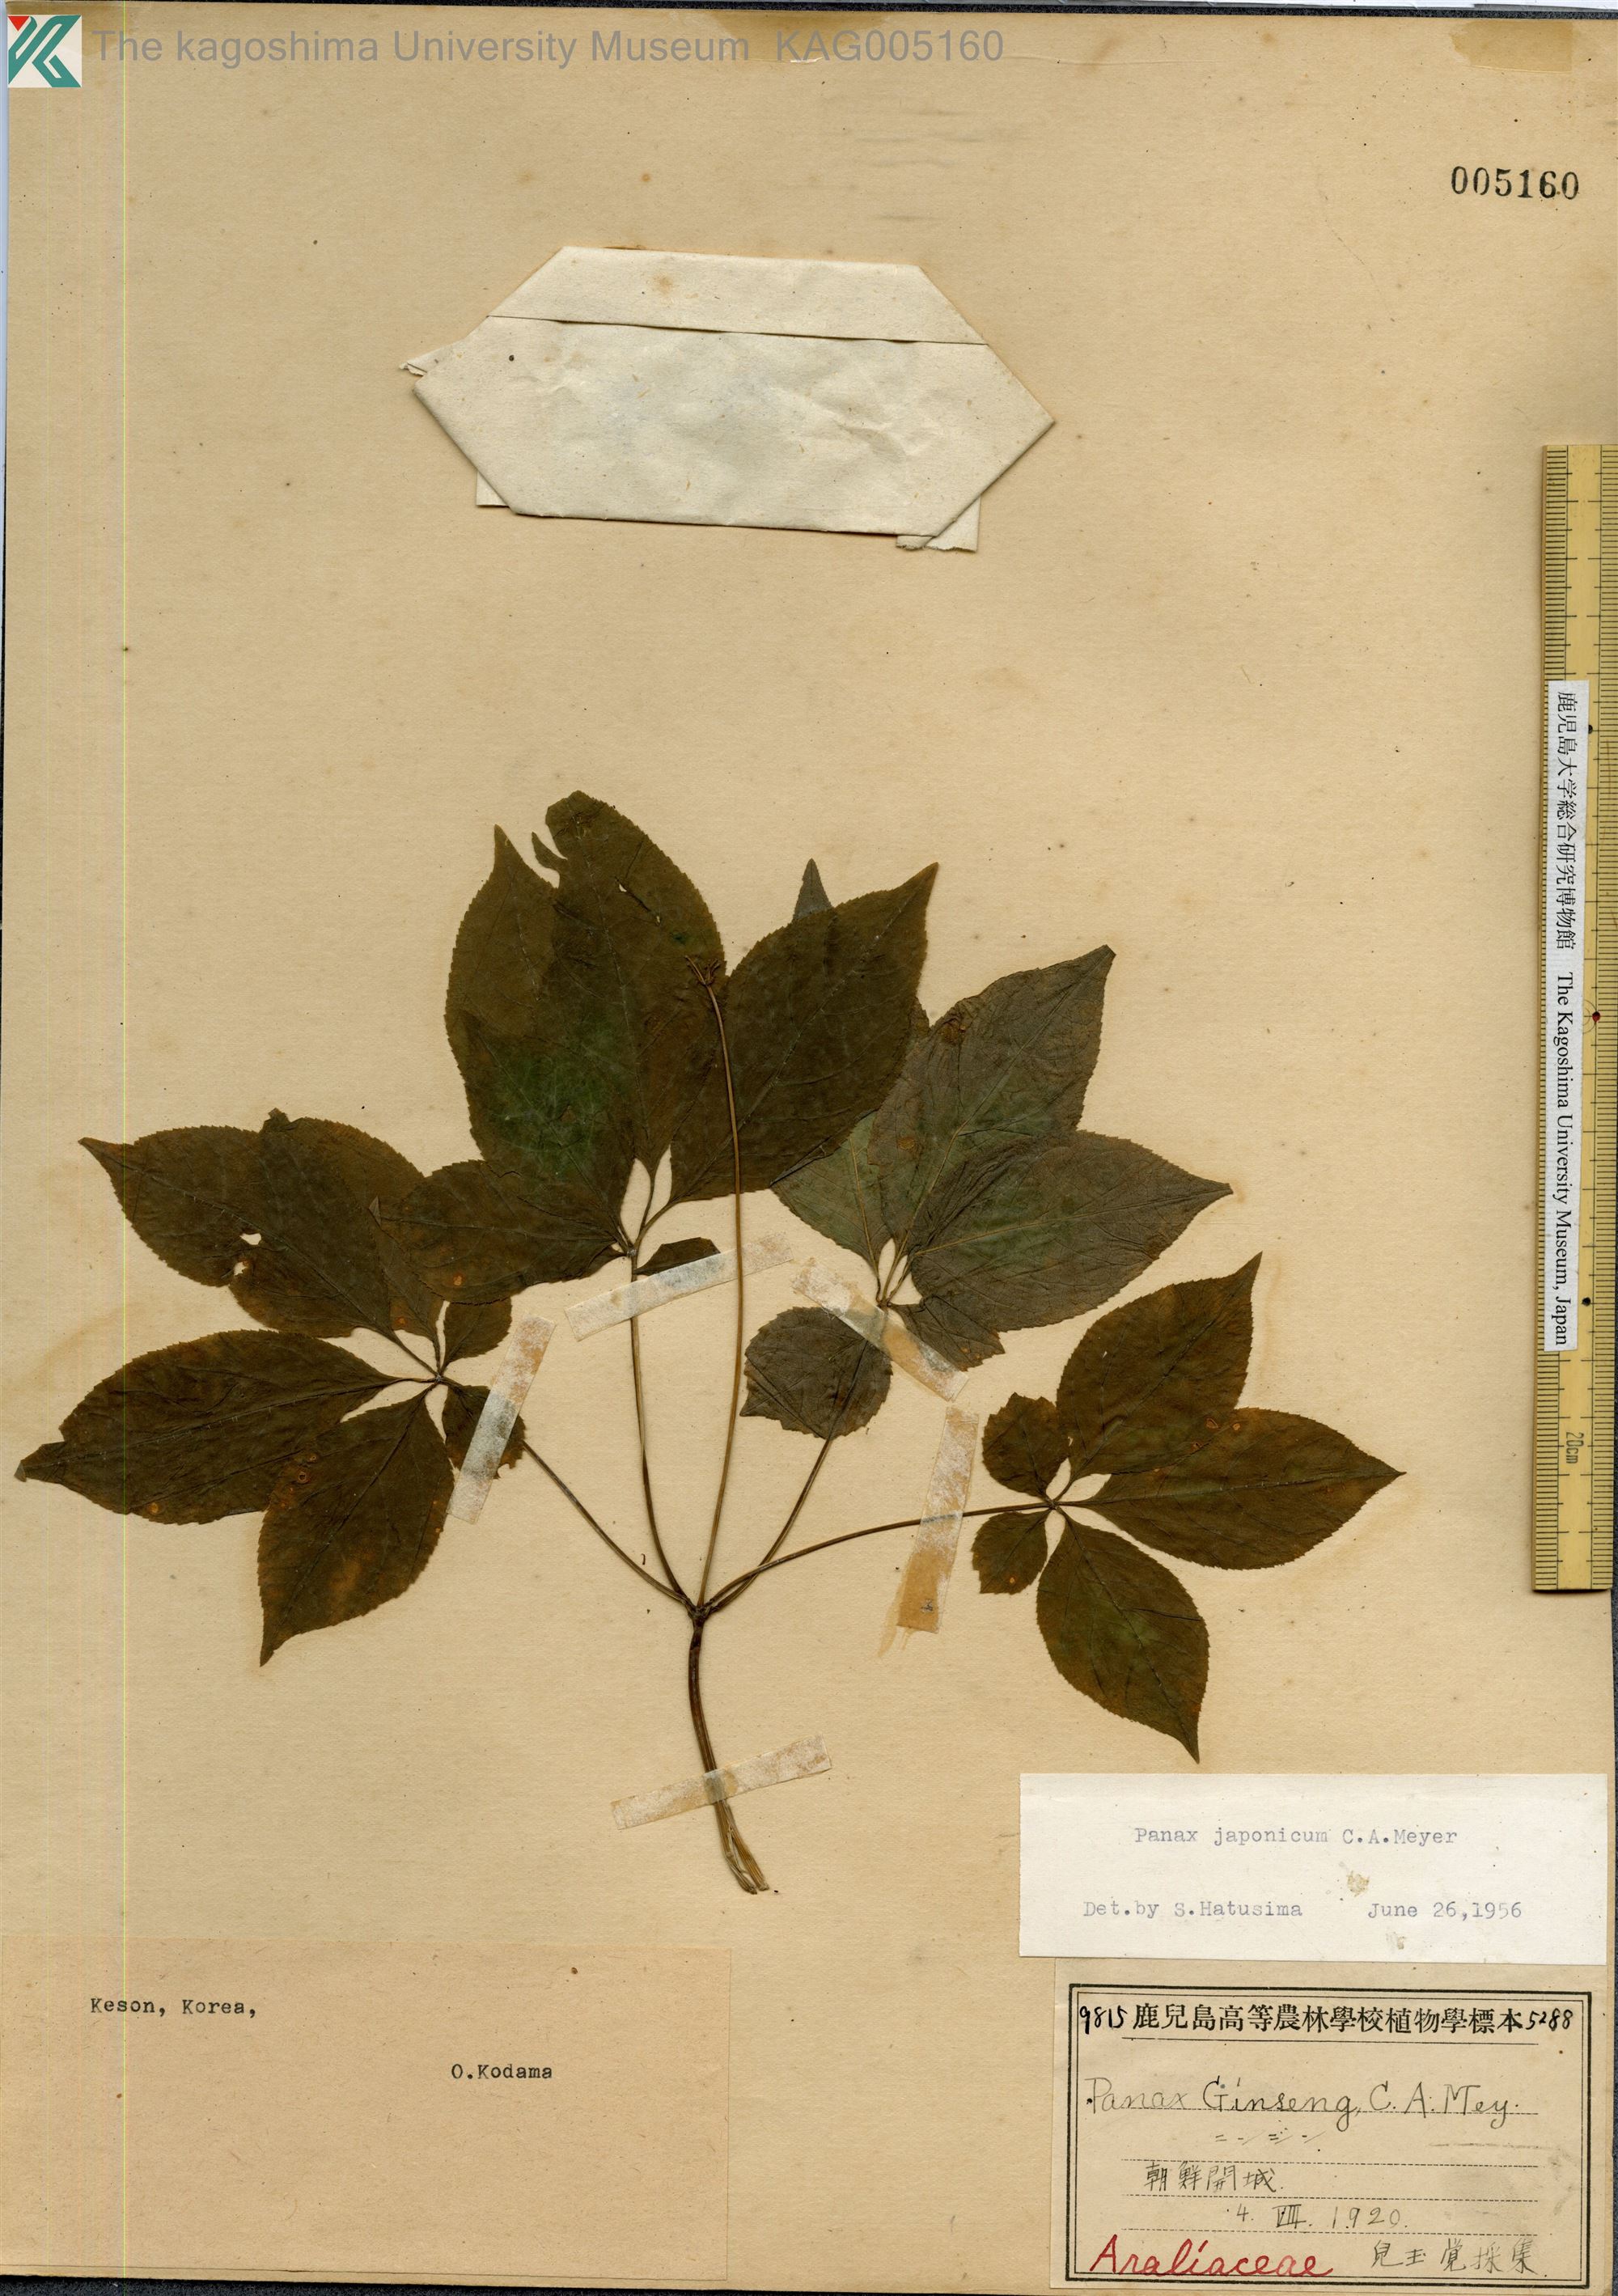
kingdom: Plantae
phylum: Tracheophyta
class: Magnoliopsida
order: Apiales
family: Araliaceae
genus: Panax
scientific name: Panax japonicus
